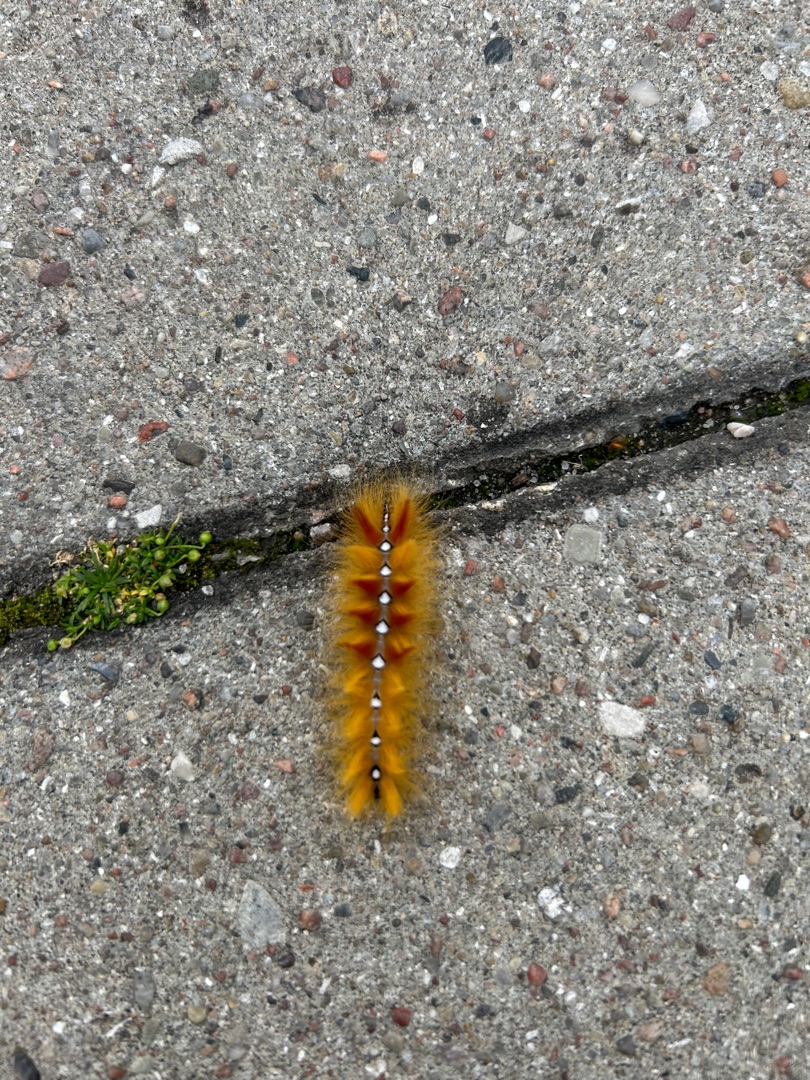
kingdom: Animalia
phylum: Arthropoda
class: Insecta
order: Lepidoptera
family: Noctuidae
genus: Acronicta
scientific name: Acronicta aceris
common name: Ahornugle
